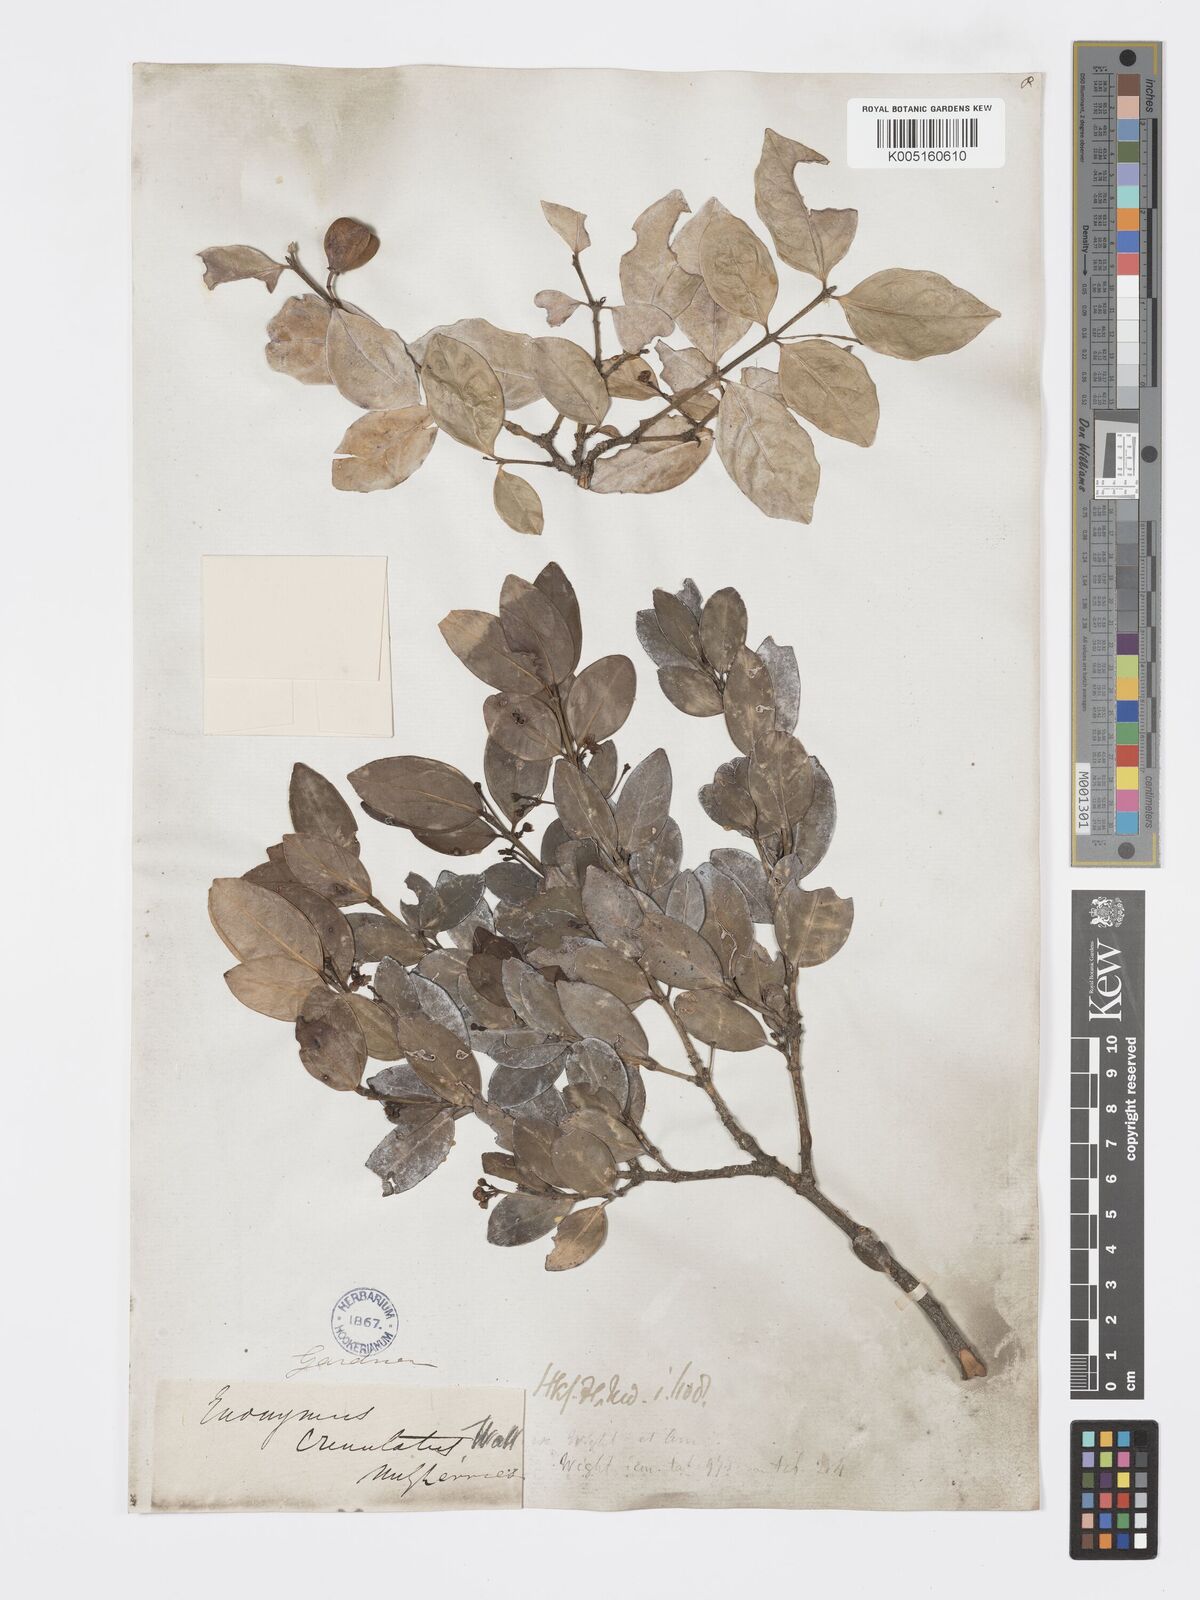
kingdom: Plantae
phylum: Tracheophyta
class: Magnoliopsida
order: Celastrales
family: Celastraceae
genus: Euonymus
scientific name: Euonymus crenulatus
